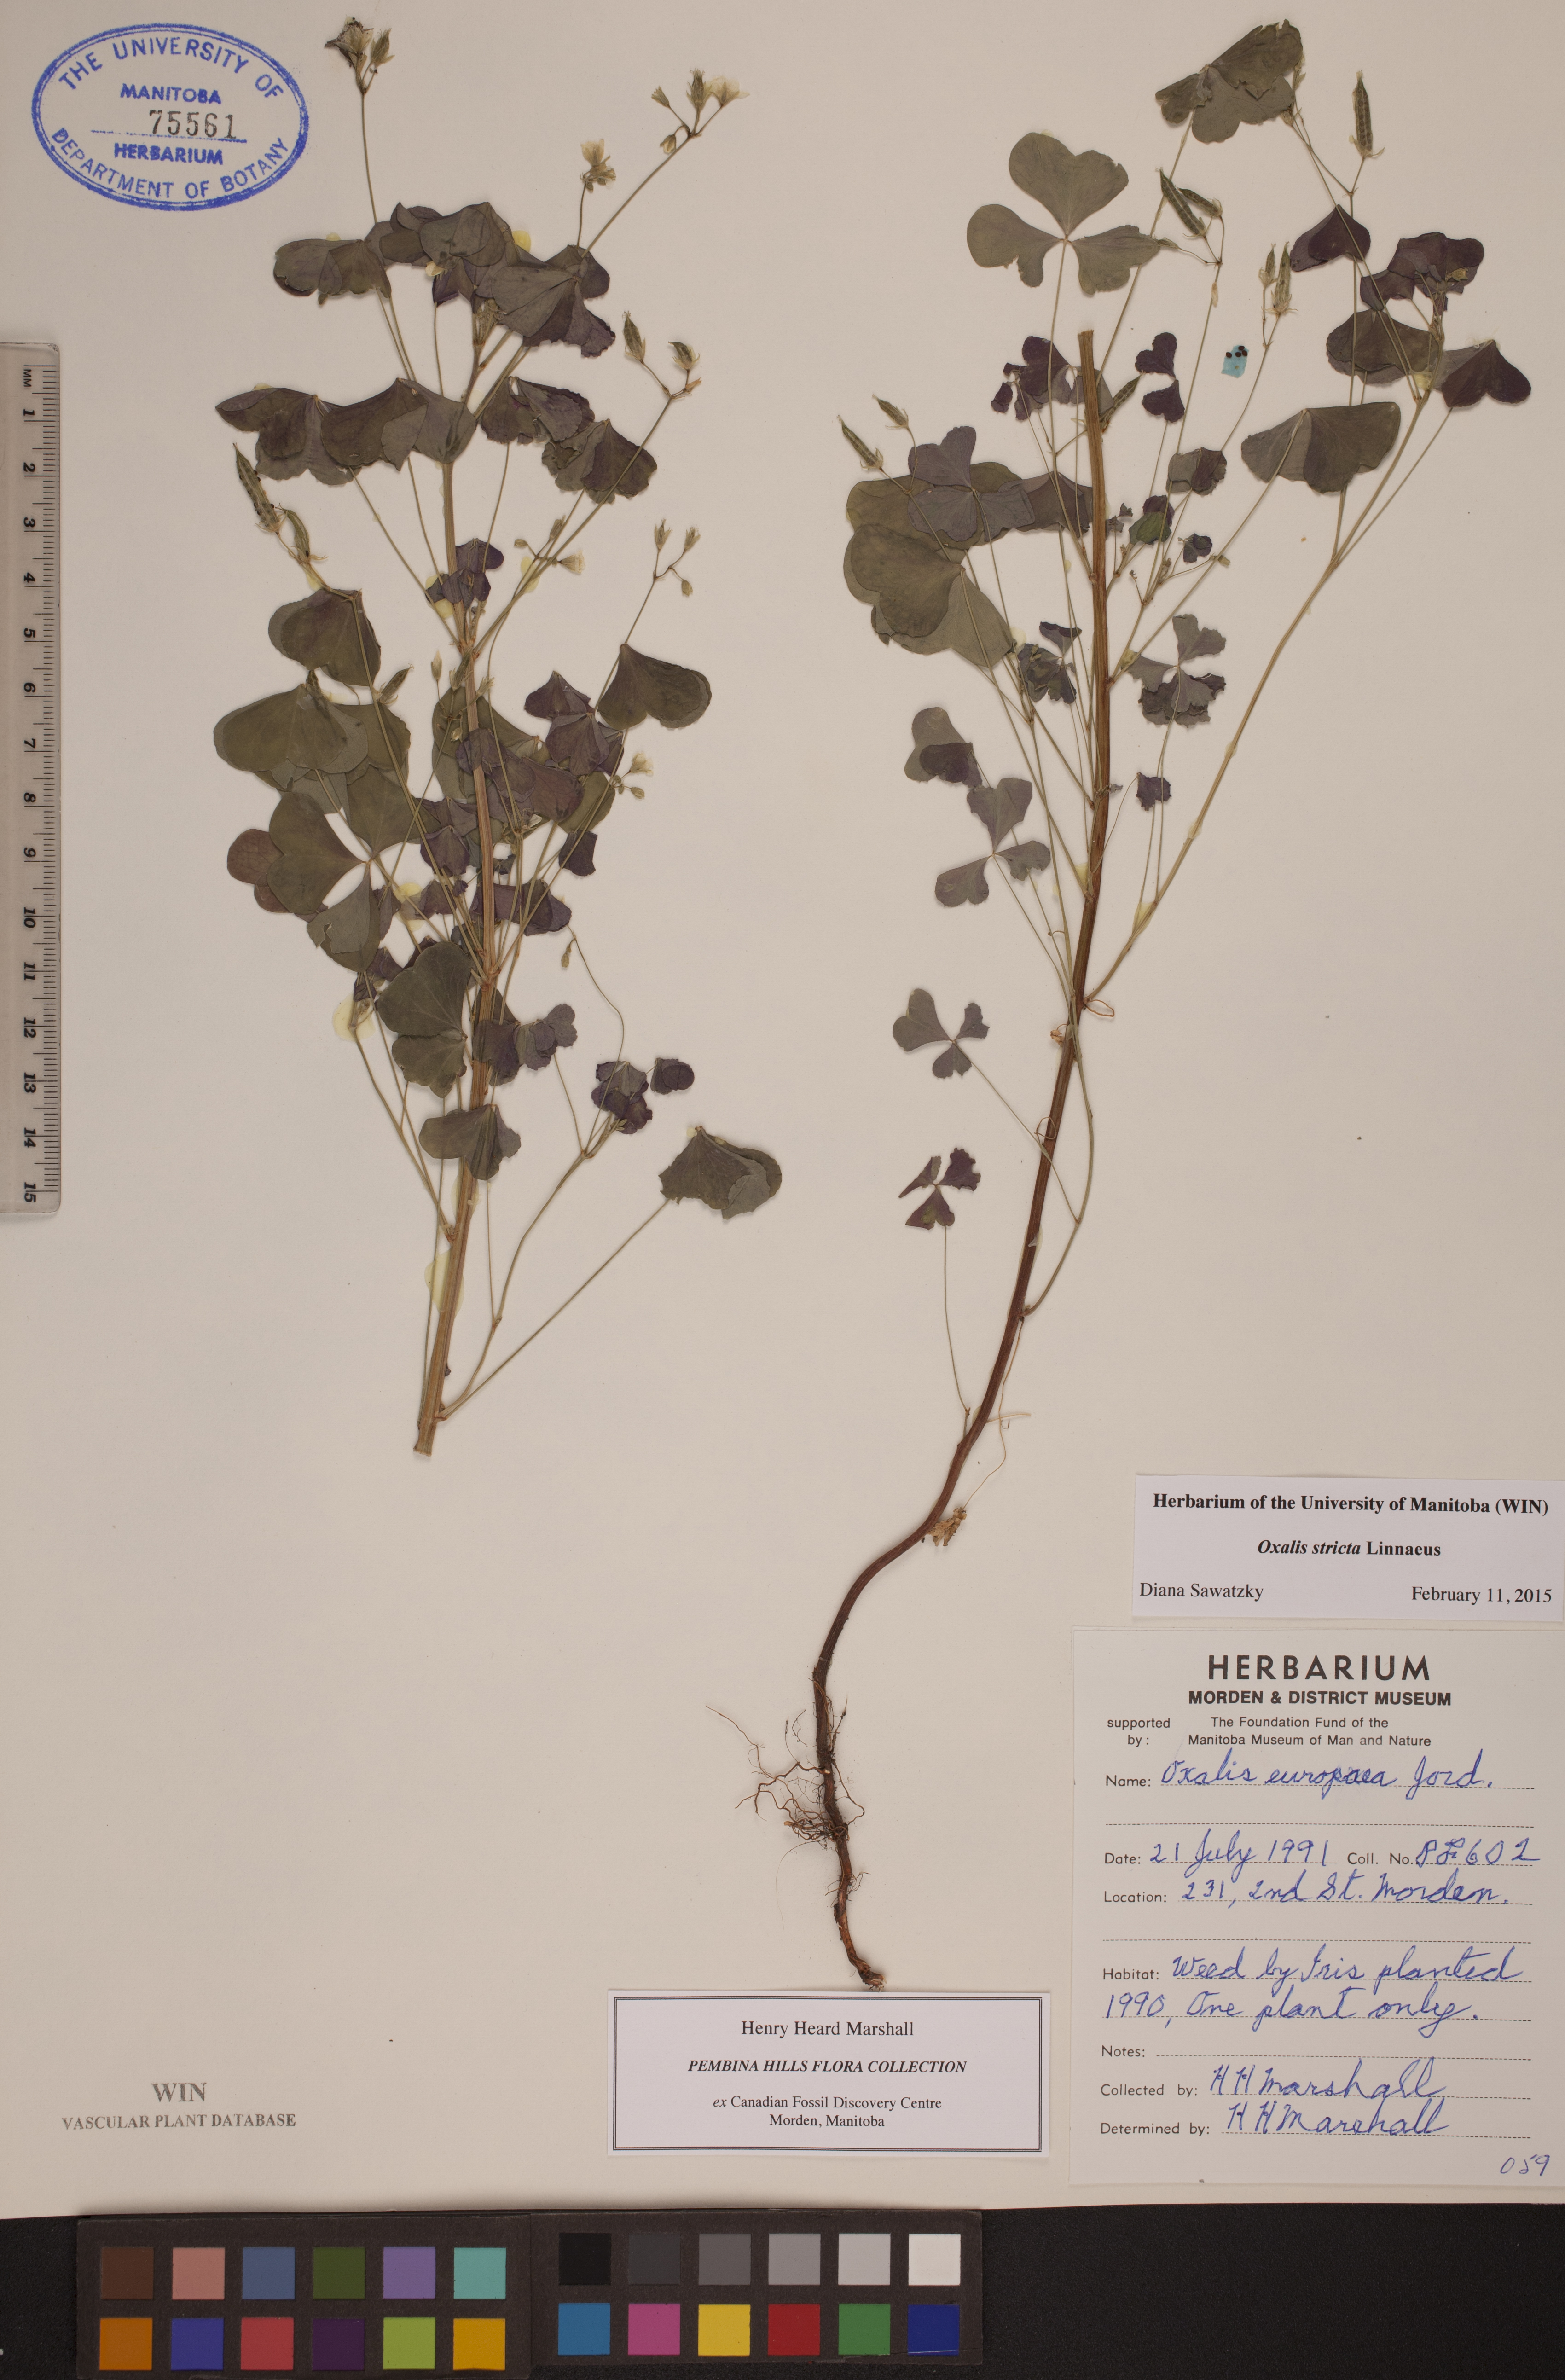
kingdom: Plantae
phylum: Tracheophyta
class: Magnoliopsida
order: Oxalidales
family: Oxalidaceae
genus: Oxalis
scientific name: Oxalis stricta
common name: Upright yellow-sorrel
